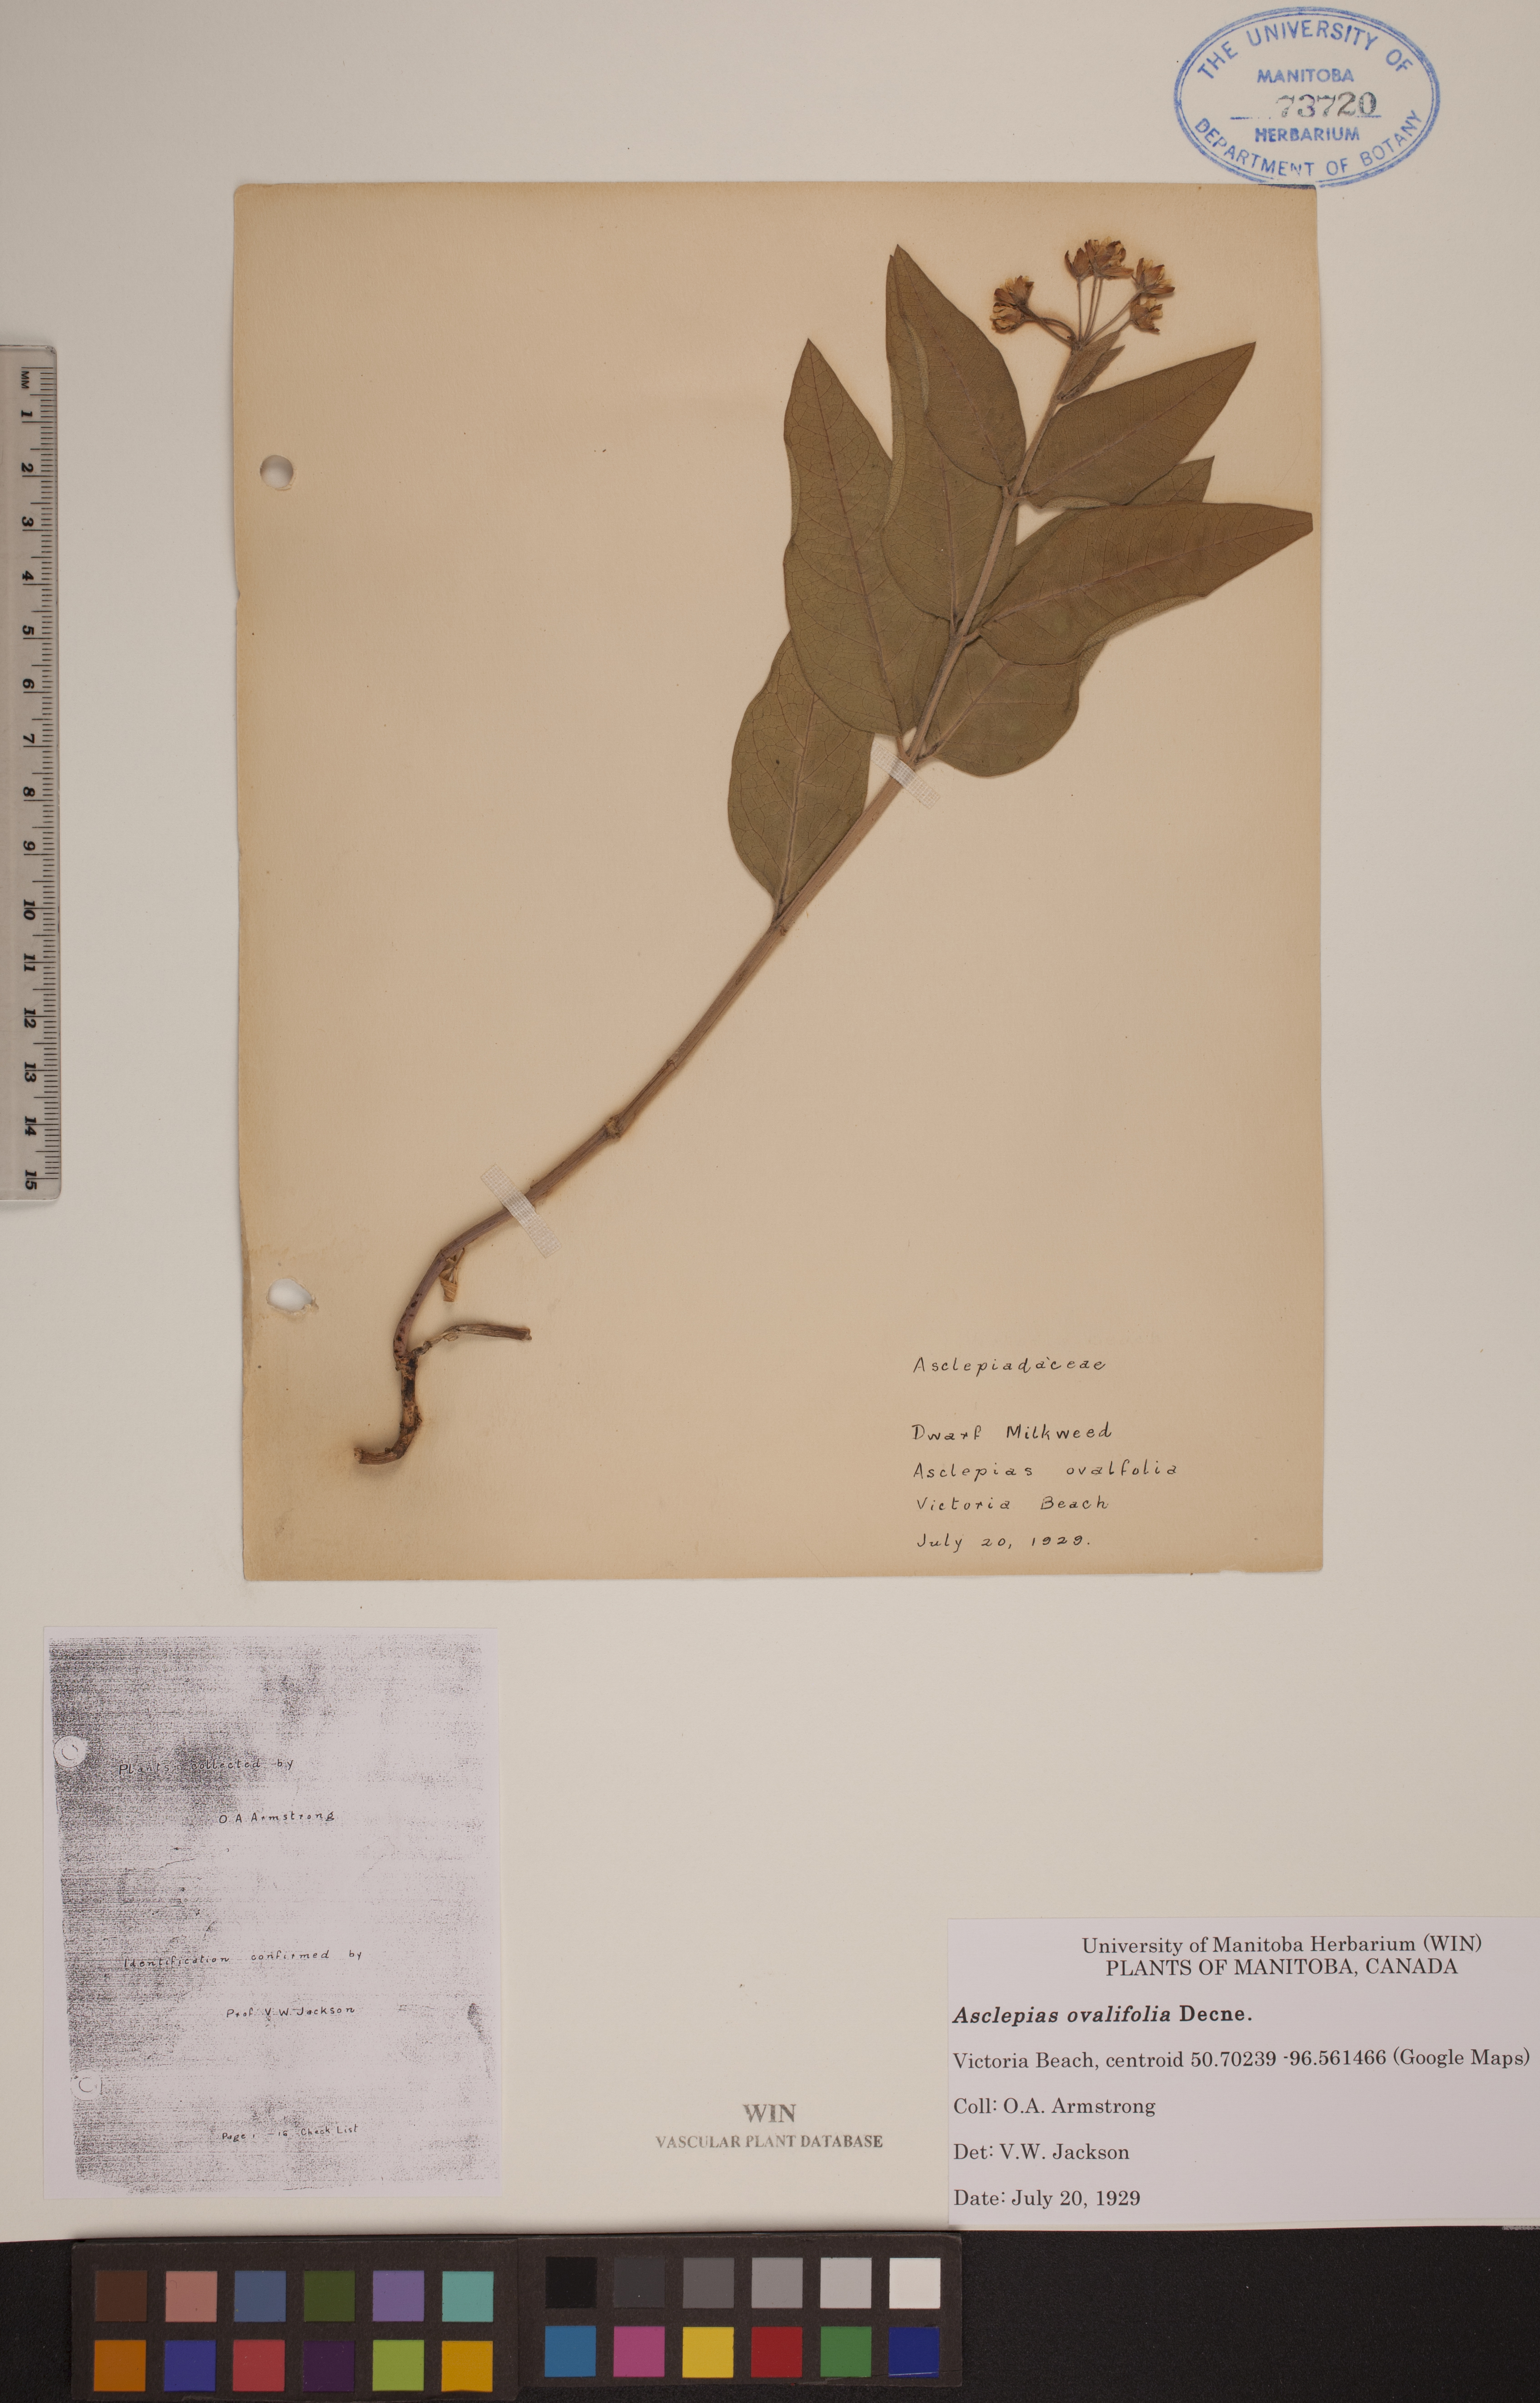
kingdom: Plantae
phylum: Tracheophyta
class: Magnoliopsida
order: Gentianales
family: Apocynaceae
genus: Asclepias
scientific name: Asclepias ovalifolia
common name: Dwarf milkweed
